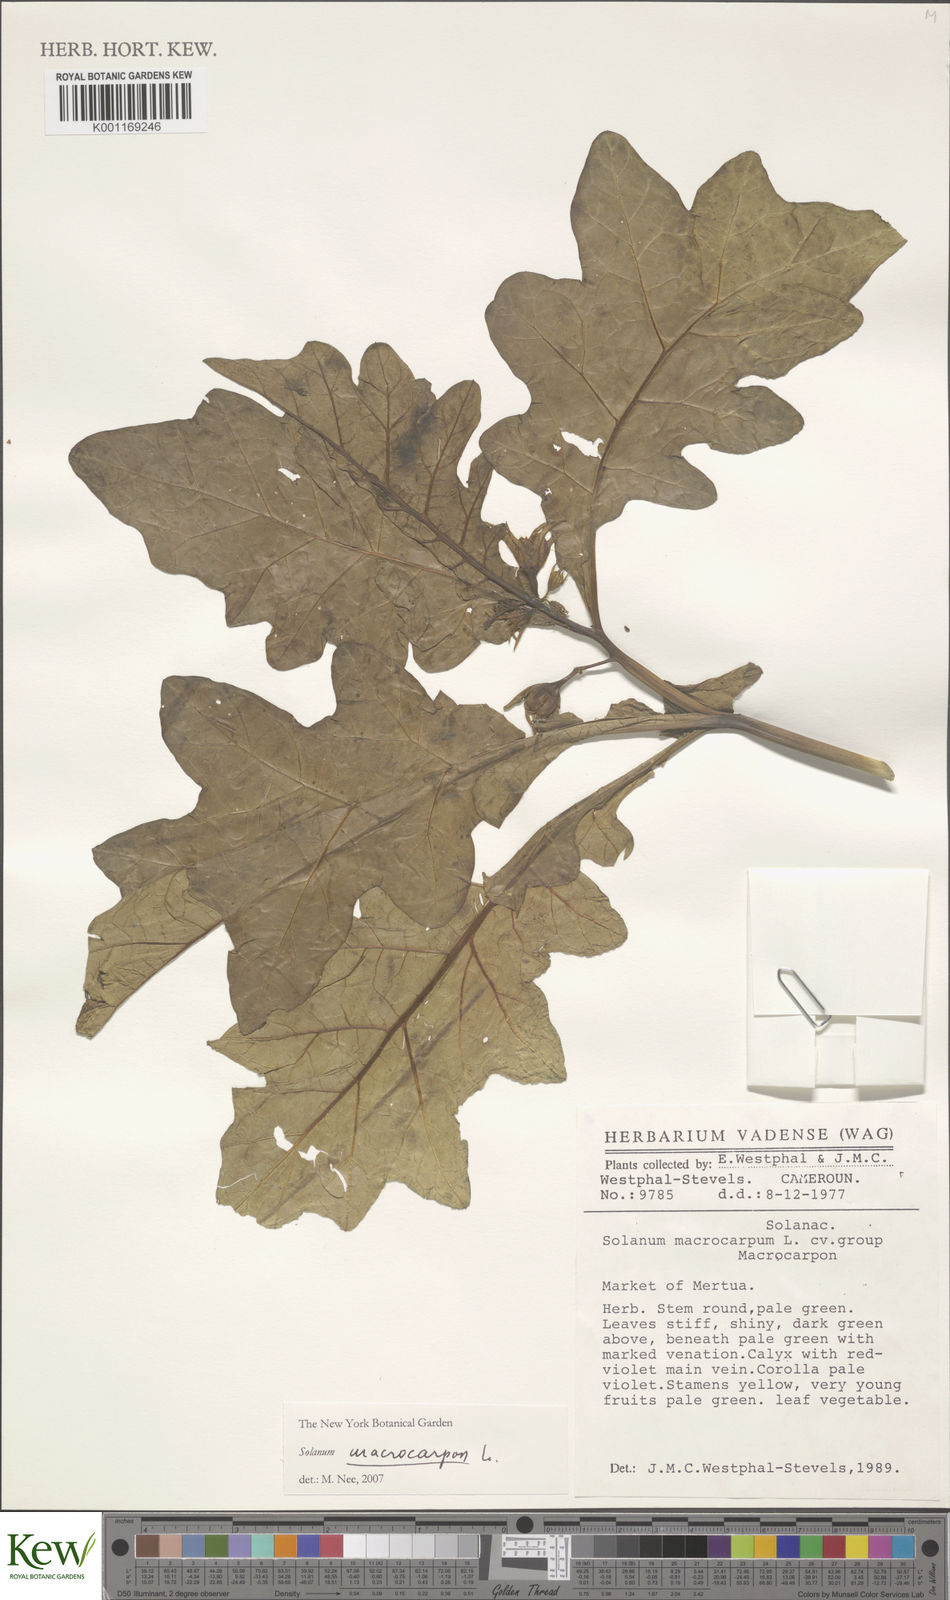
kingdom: Plantae
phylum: Tracheophyta
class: Magnoliopsida
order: Solanales
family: Solanaceae
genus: Solanum
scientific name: Solanum macrocarpon
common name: African eggplant
